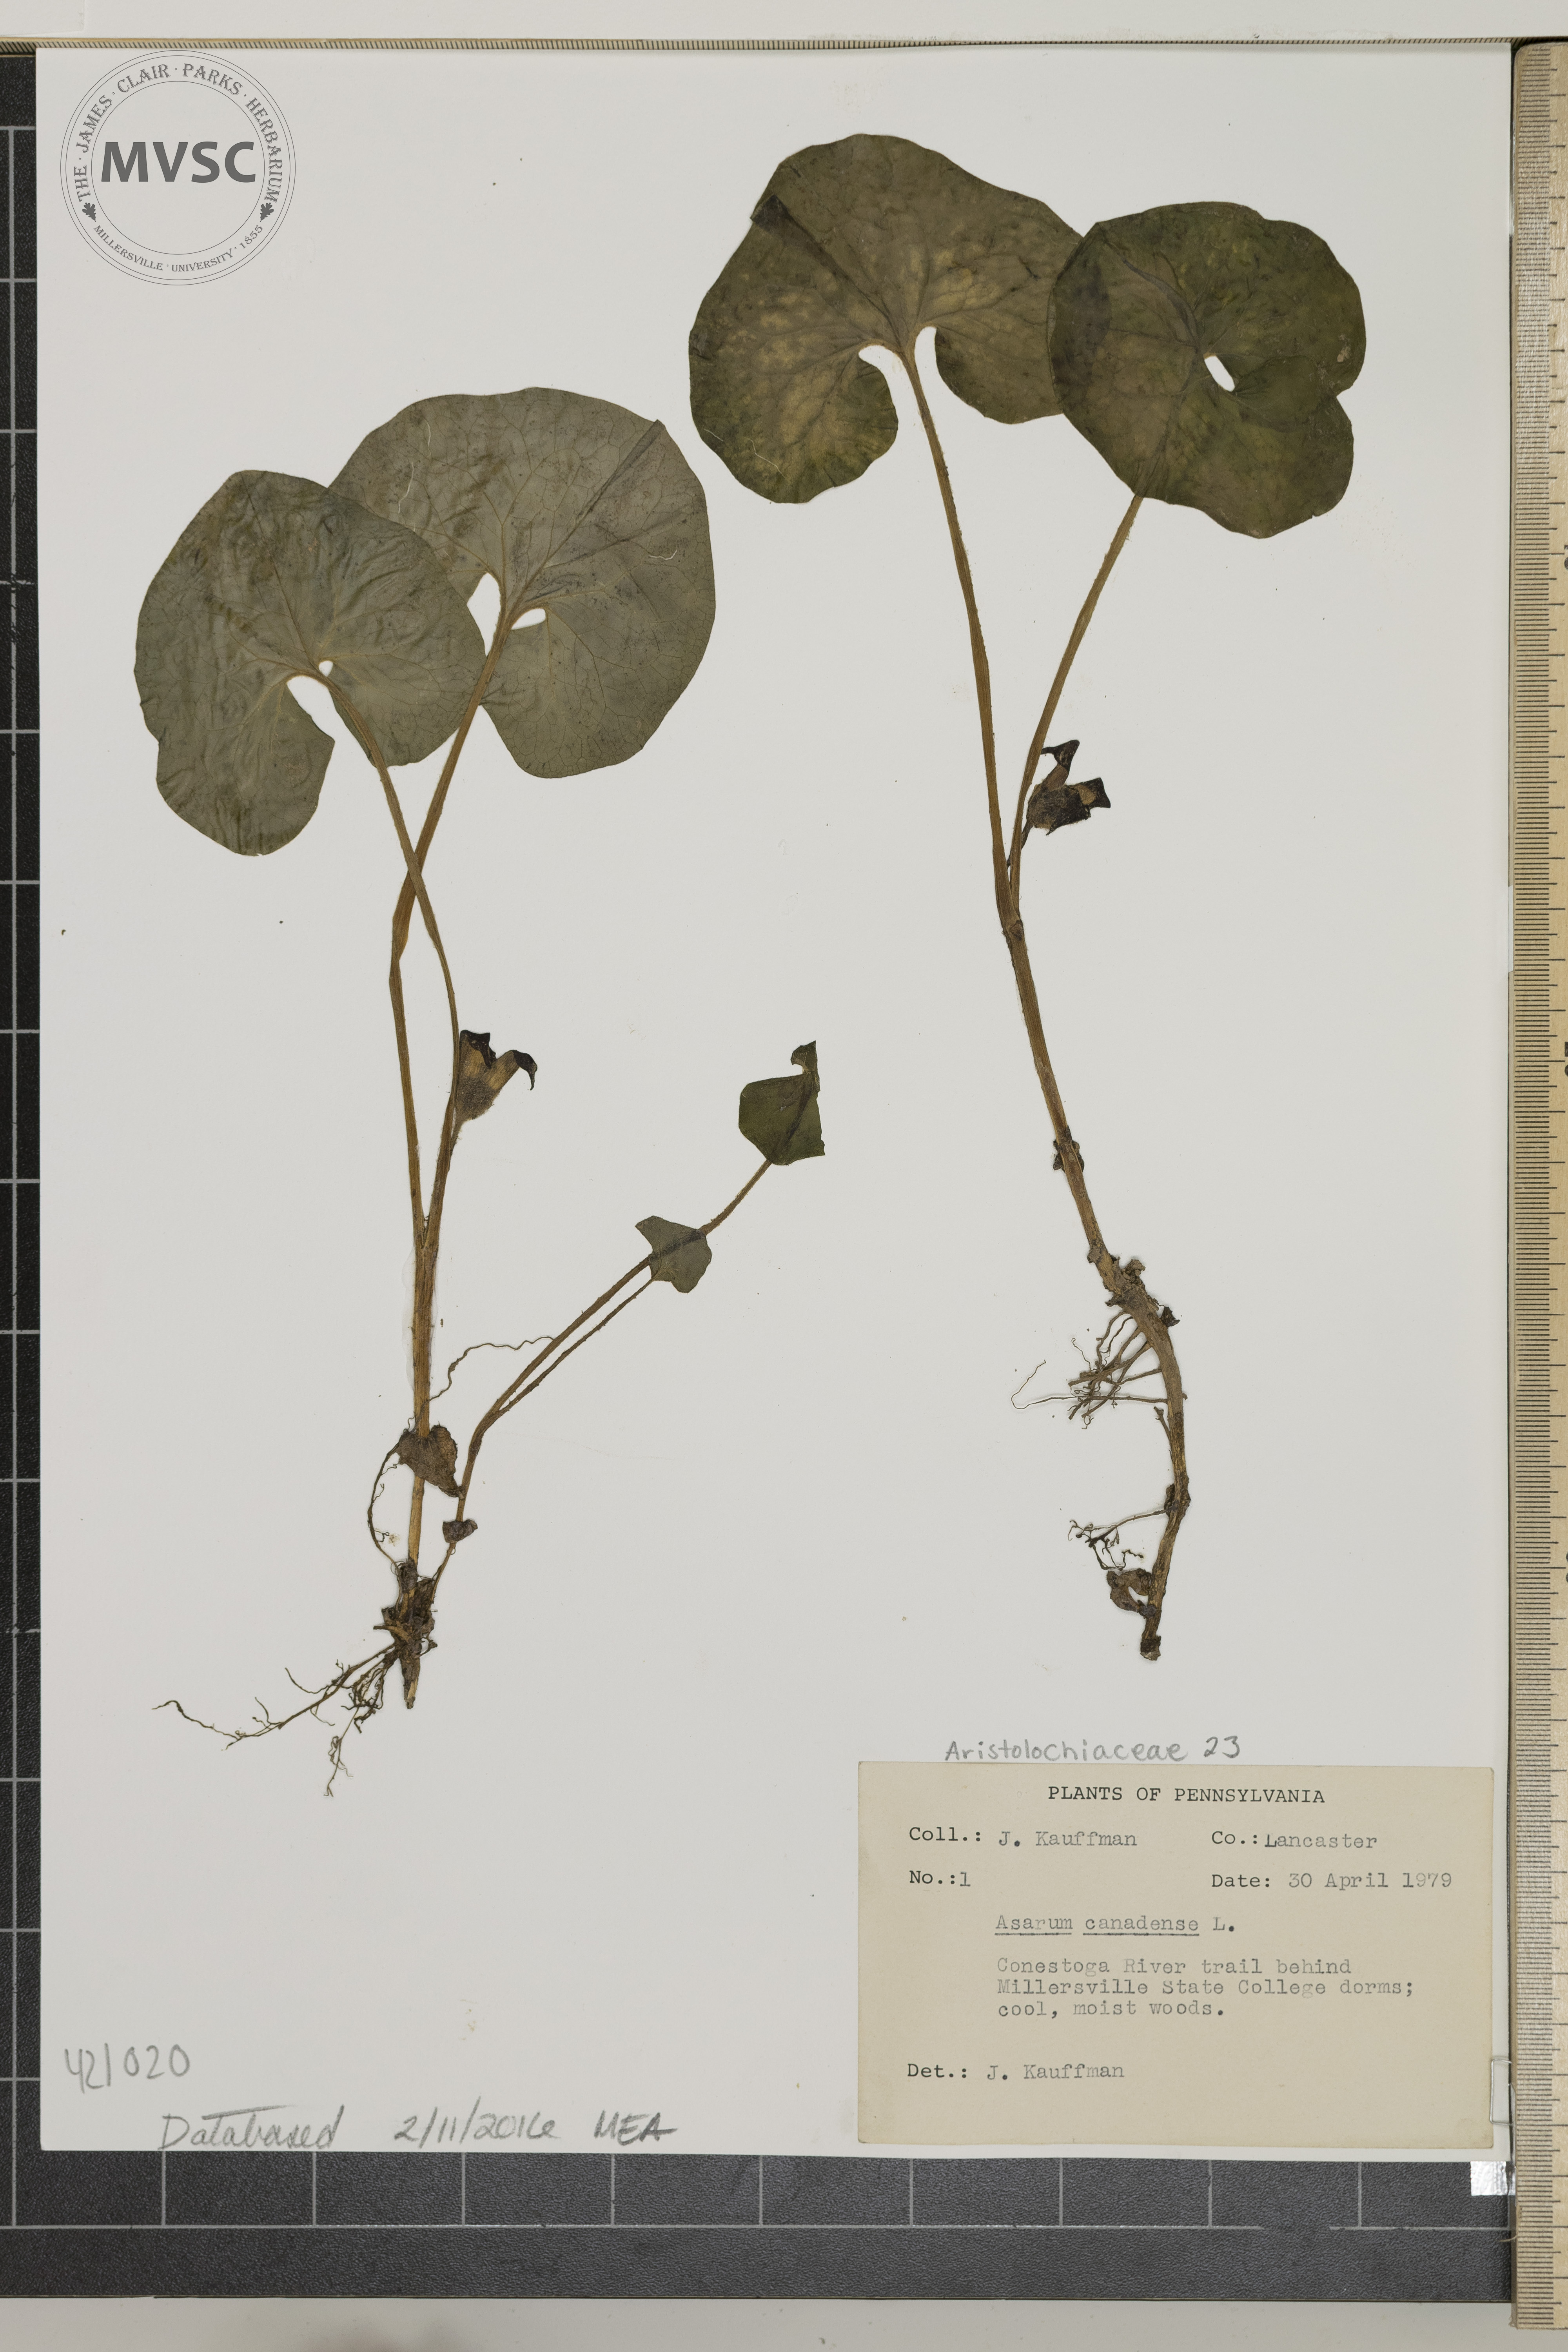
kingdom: Plantae
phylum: Tracheophyta
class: Magnoliopsida
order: Piperales
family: Aristolochiaceae
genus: Asarum
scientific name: Asarum canadense
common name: Canada wild ginger
